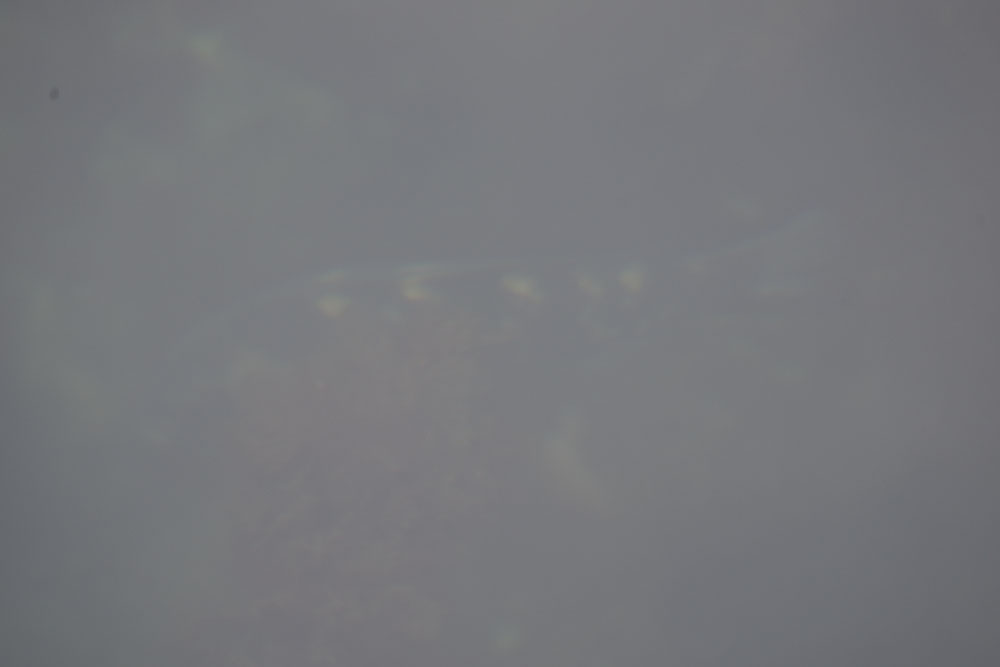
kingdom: Animalia
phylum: Chordata
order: Perciformes
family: Labridae
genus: Notolabrus
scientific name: Notolabrus fucicola
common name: Banded parrotfish
